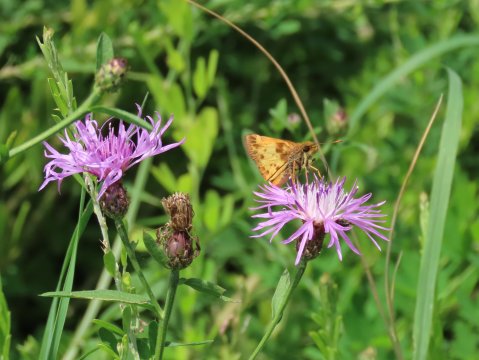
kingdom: Animalia
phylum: Arthropoda
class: Insecta
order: Lepidoptera
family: Hesperiidae
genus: Lon
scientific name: Lon zabulon
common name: Zabulon Skipper
